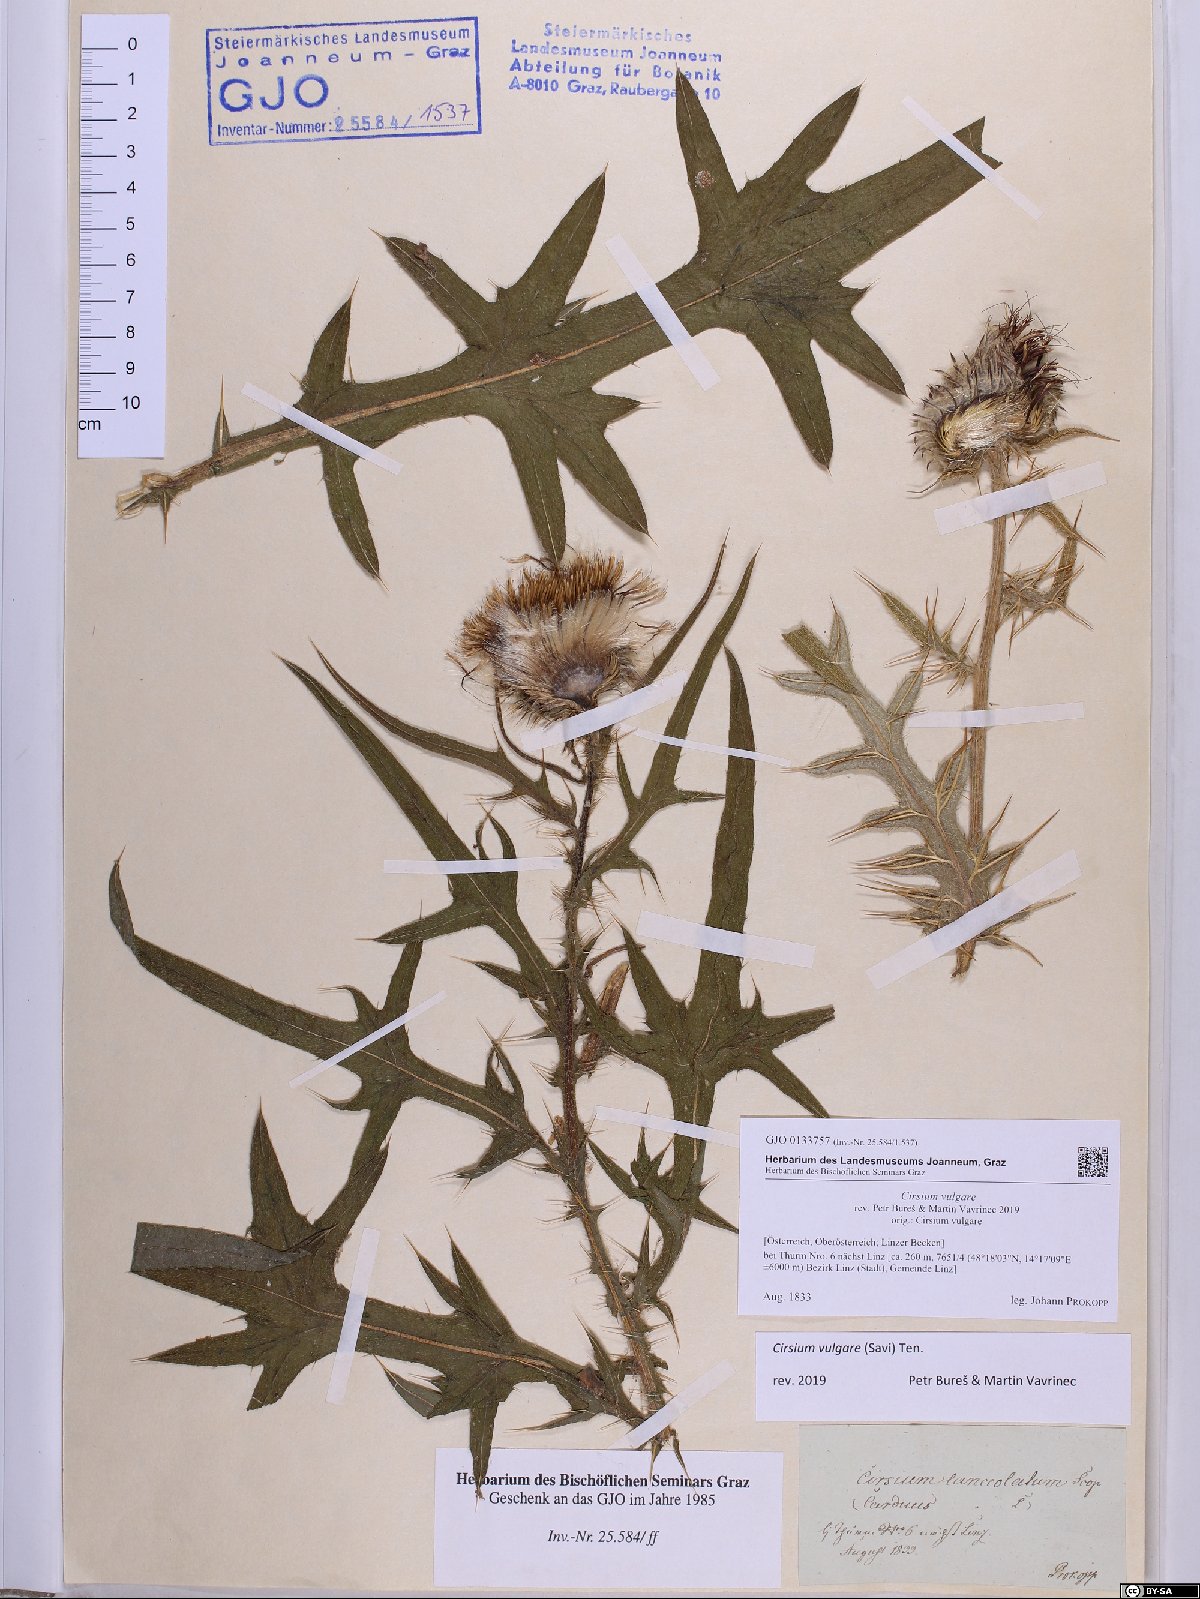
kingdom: Plantae
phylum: Tracheophyta
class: Magnoliopsida
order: Asterales
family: Asteraceae
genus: Cirsium
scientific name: Cirsium vulgare
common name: Bull thistle
